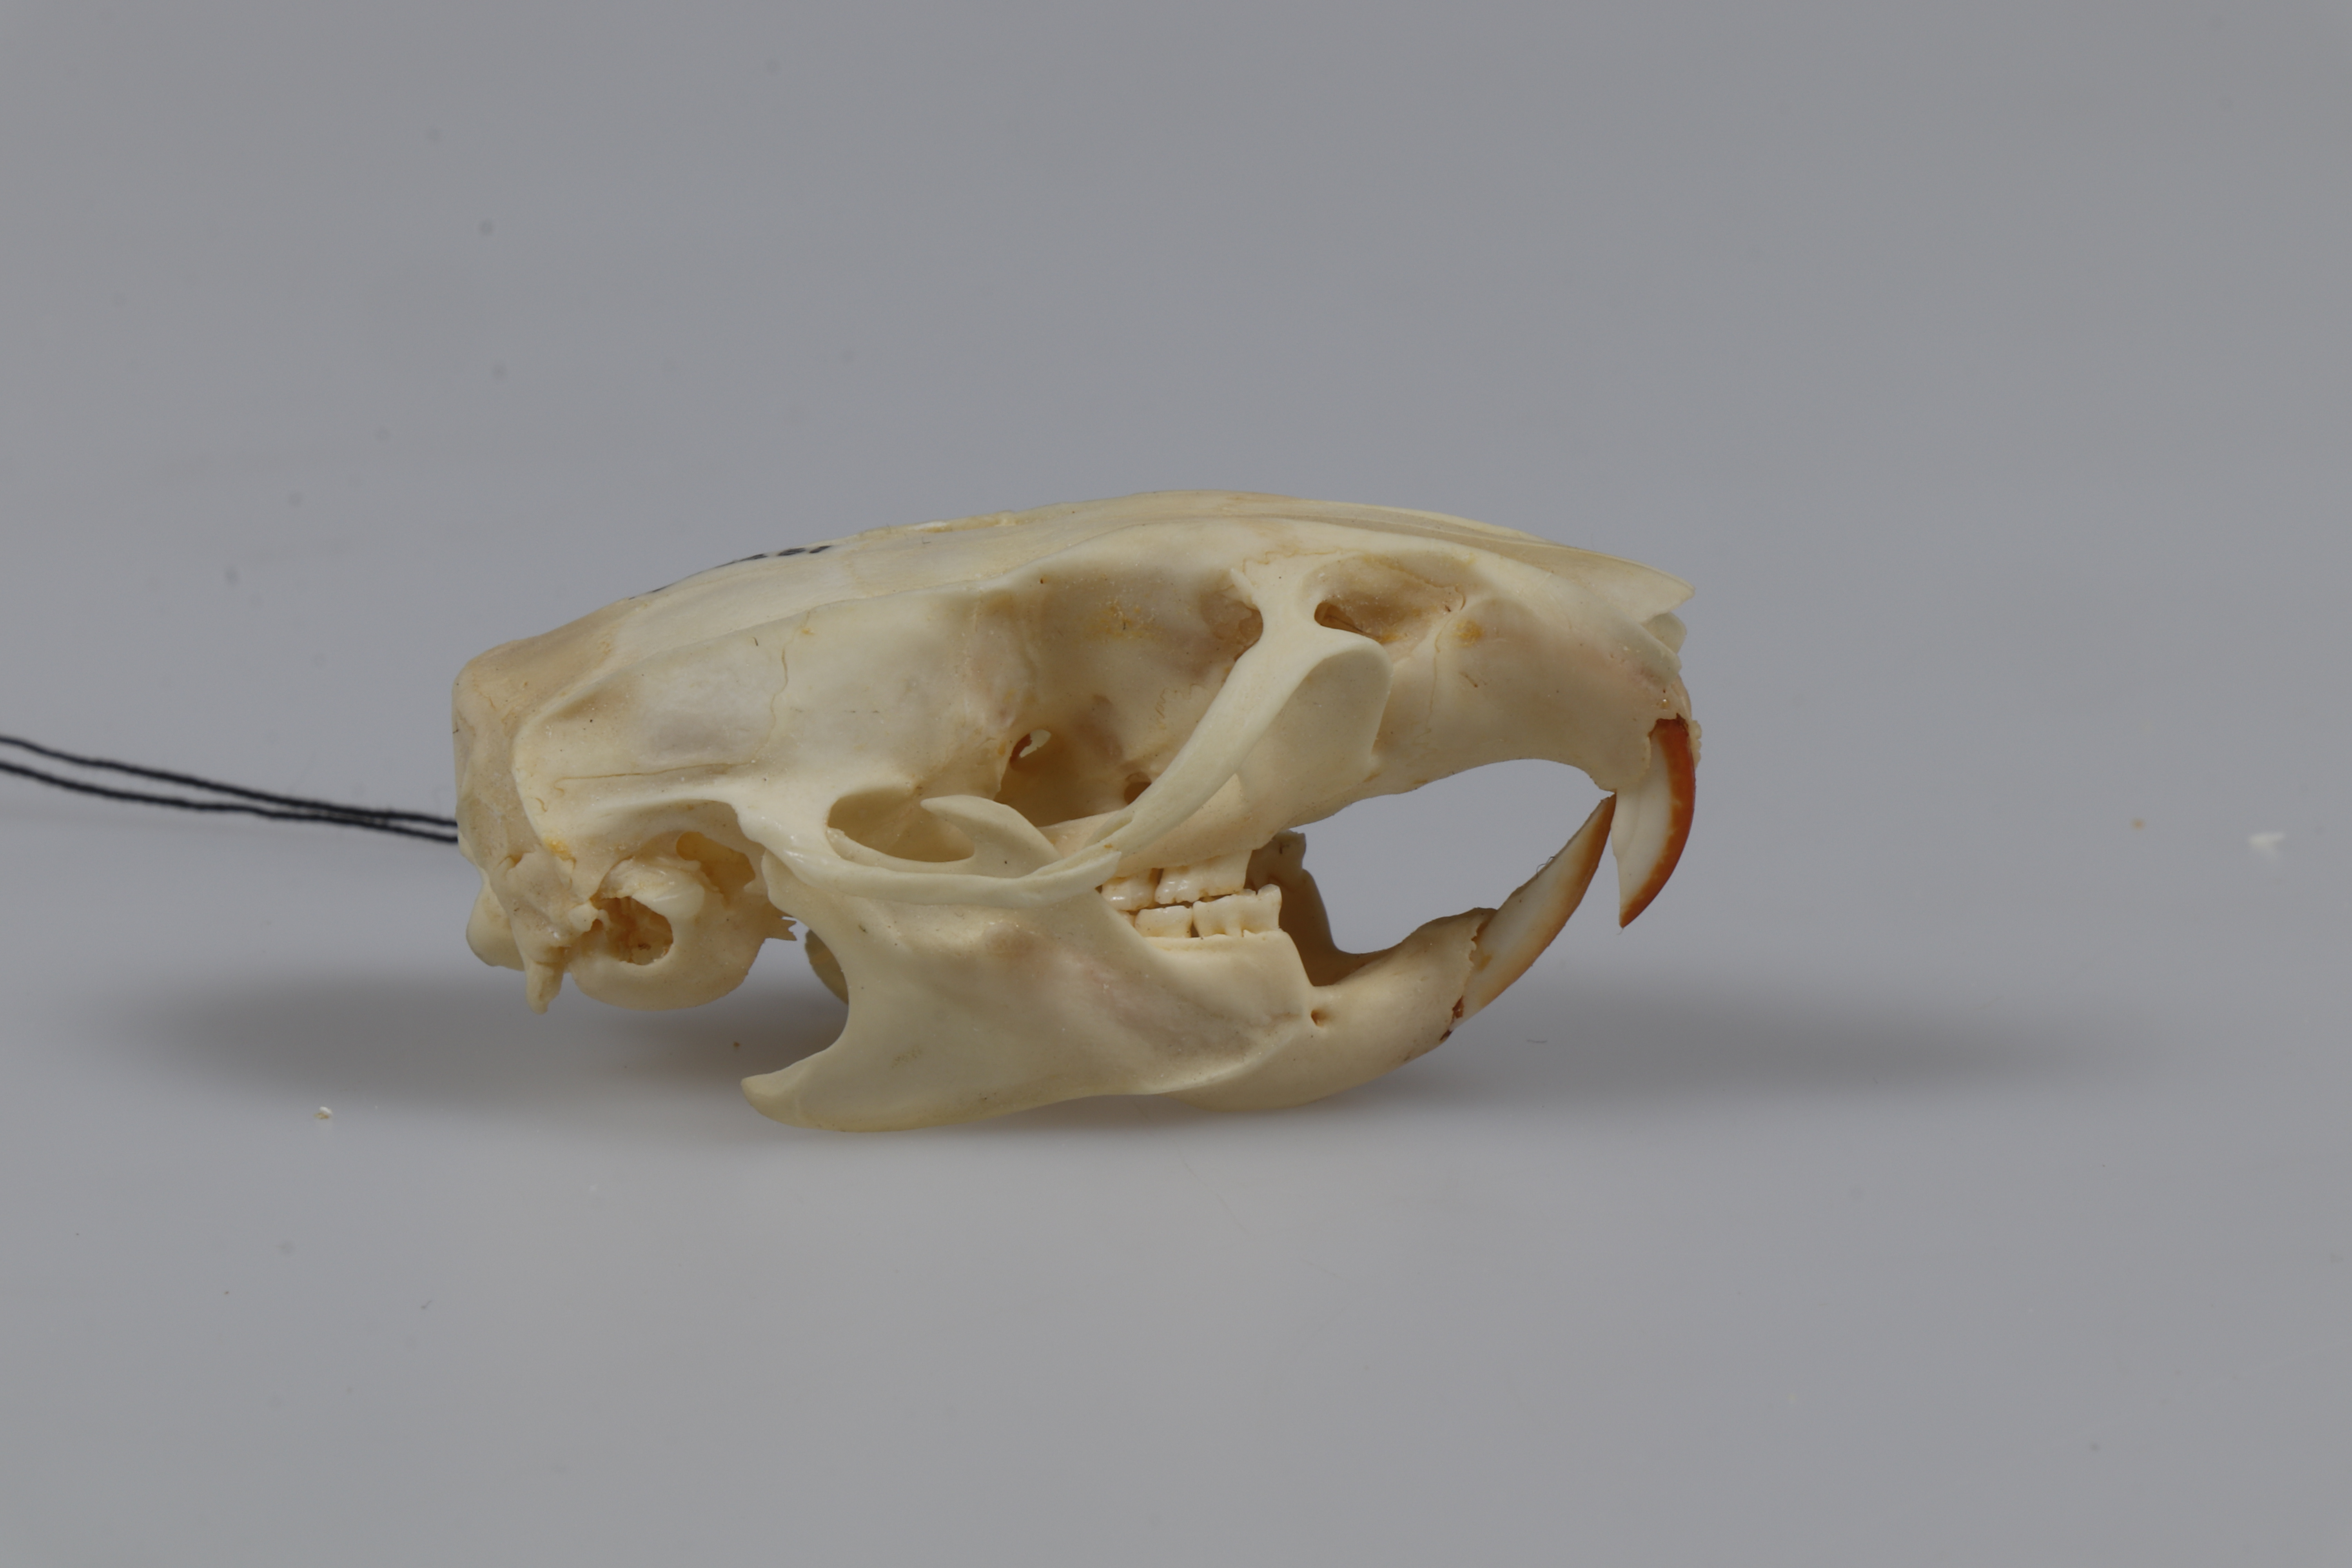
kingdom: Animalia
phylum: Chordata
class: Mammalia
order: Rodentia
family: Muridae
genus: Rattus
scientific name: Rattus norvegicus
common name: Brown rat
